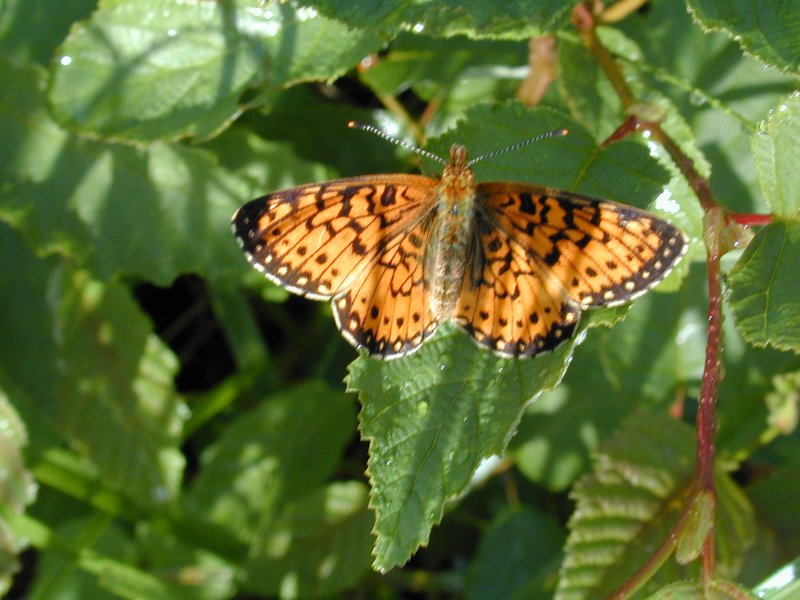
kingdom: Animalia
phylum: Arthropoda
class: Insecta
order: Lepidoptera
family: Nymphalidae
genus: Boloria
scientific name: Boloria selene
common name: Silver-bordered Fritillary
